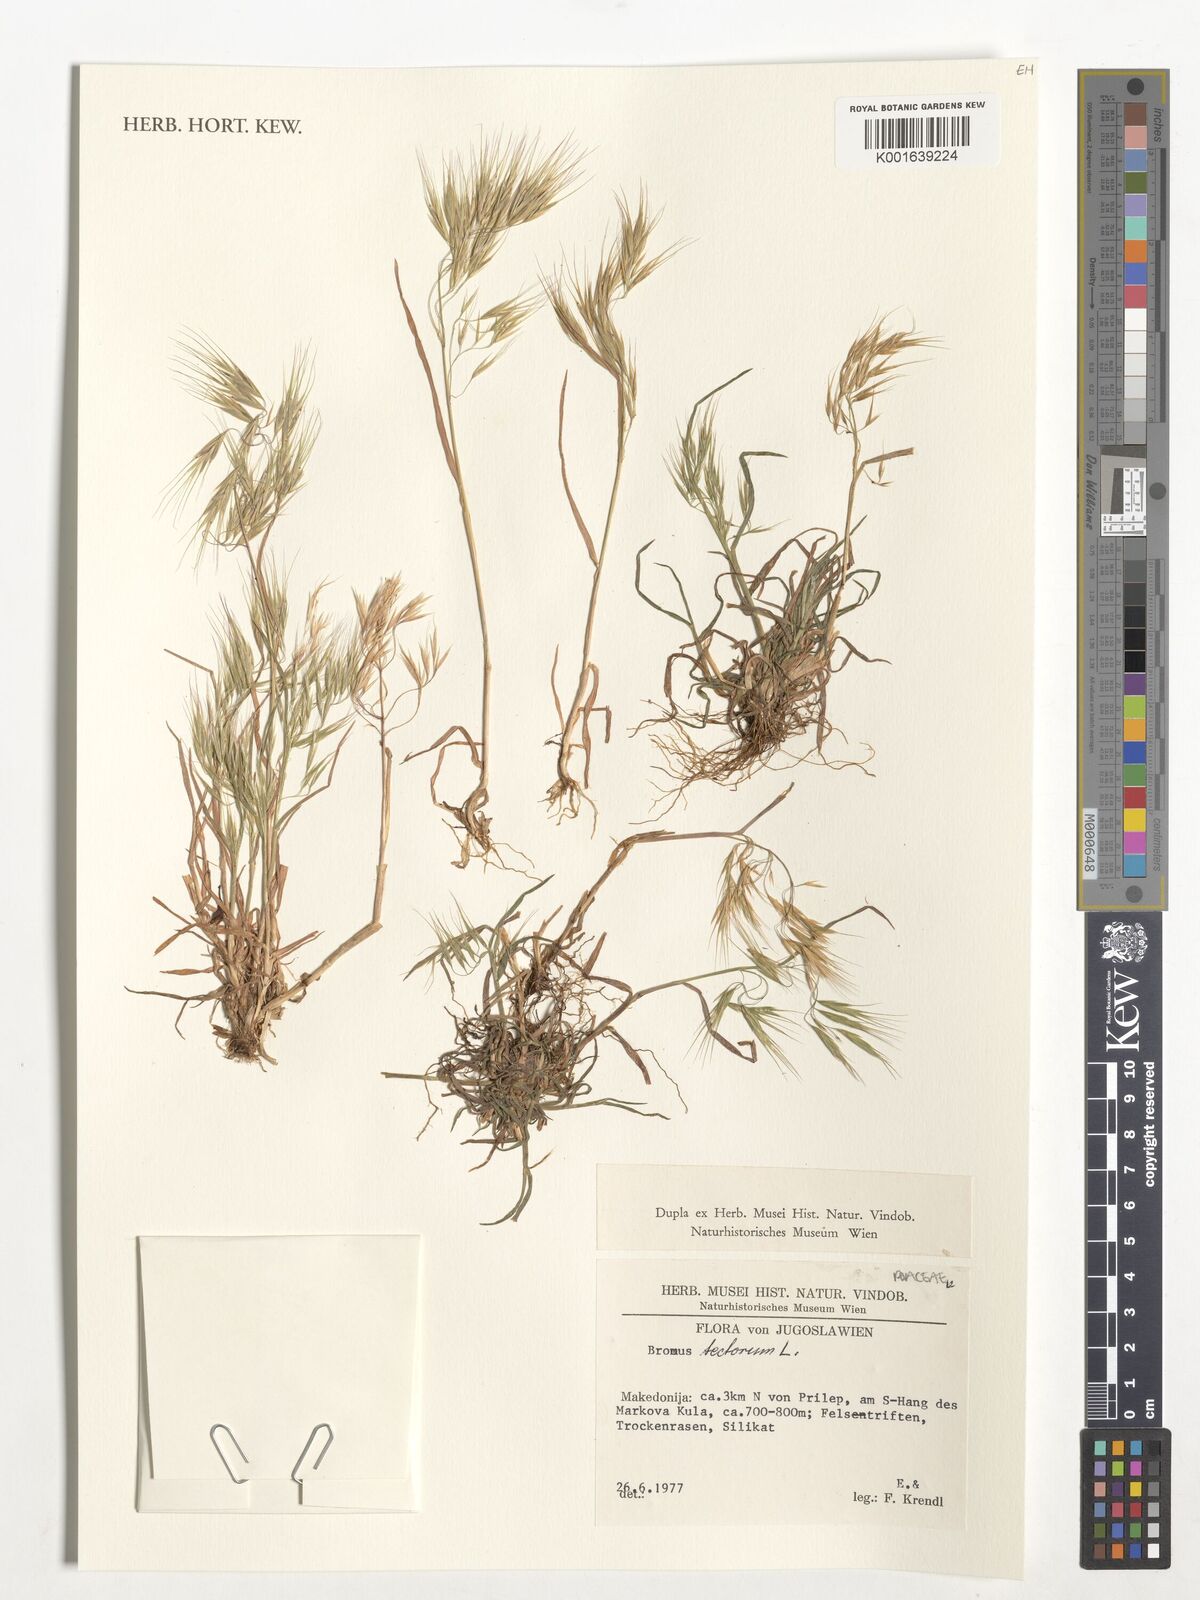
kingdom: Plantae
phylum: Tracheophyta
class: Liliopsida
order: Poales
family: Poaceae
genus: Bromus
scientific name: Bromus tectorum
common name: Cheatgrass
